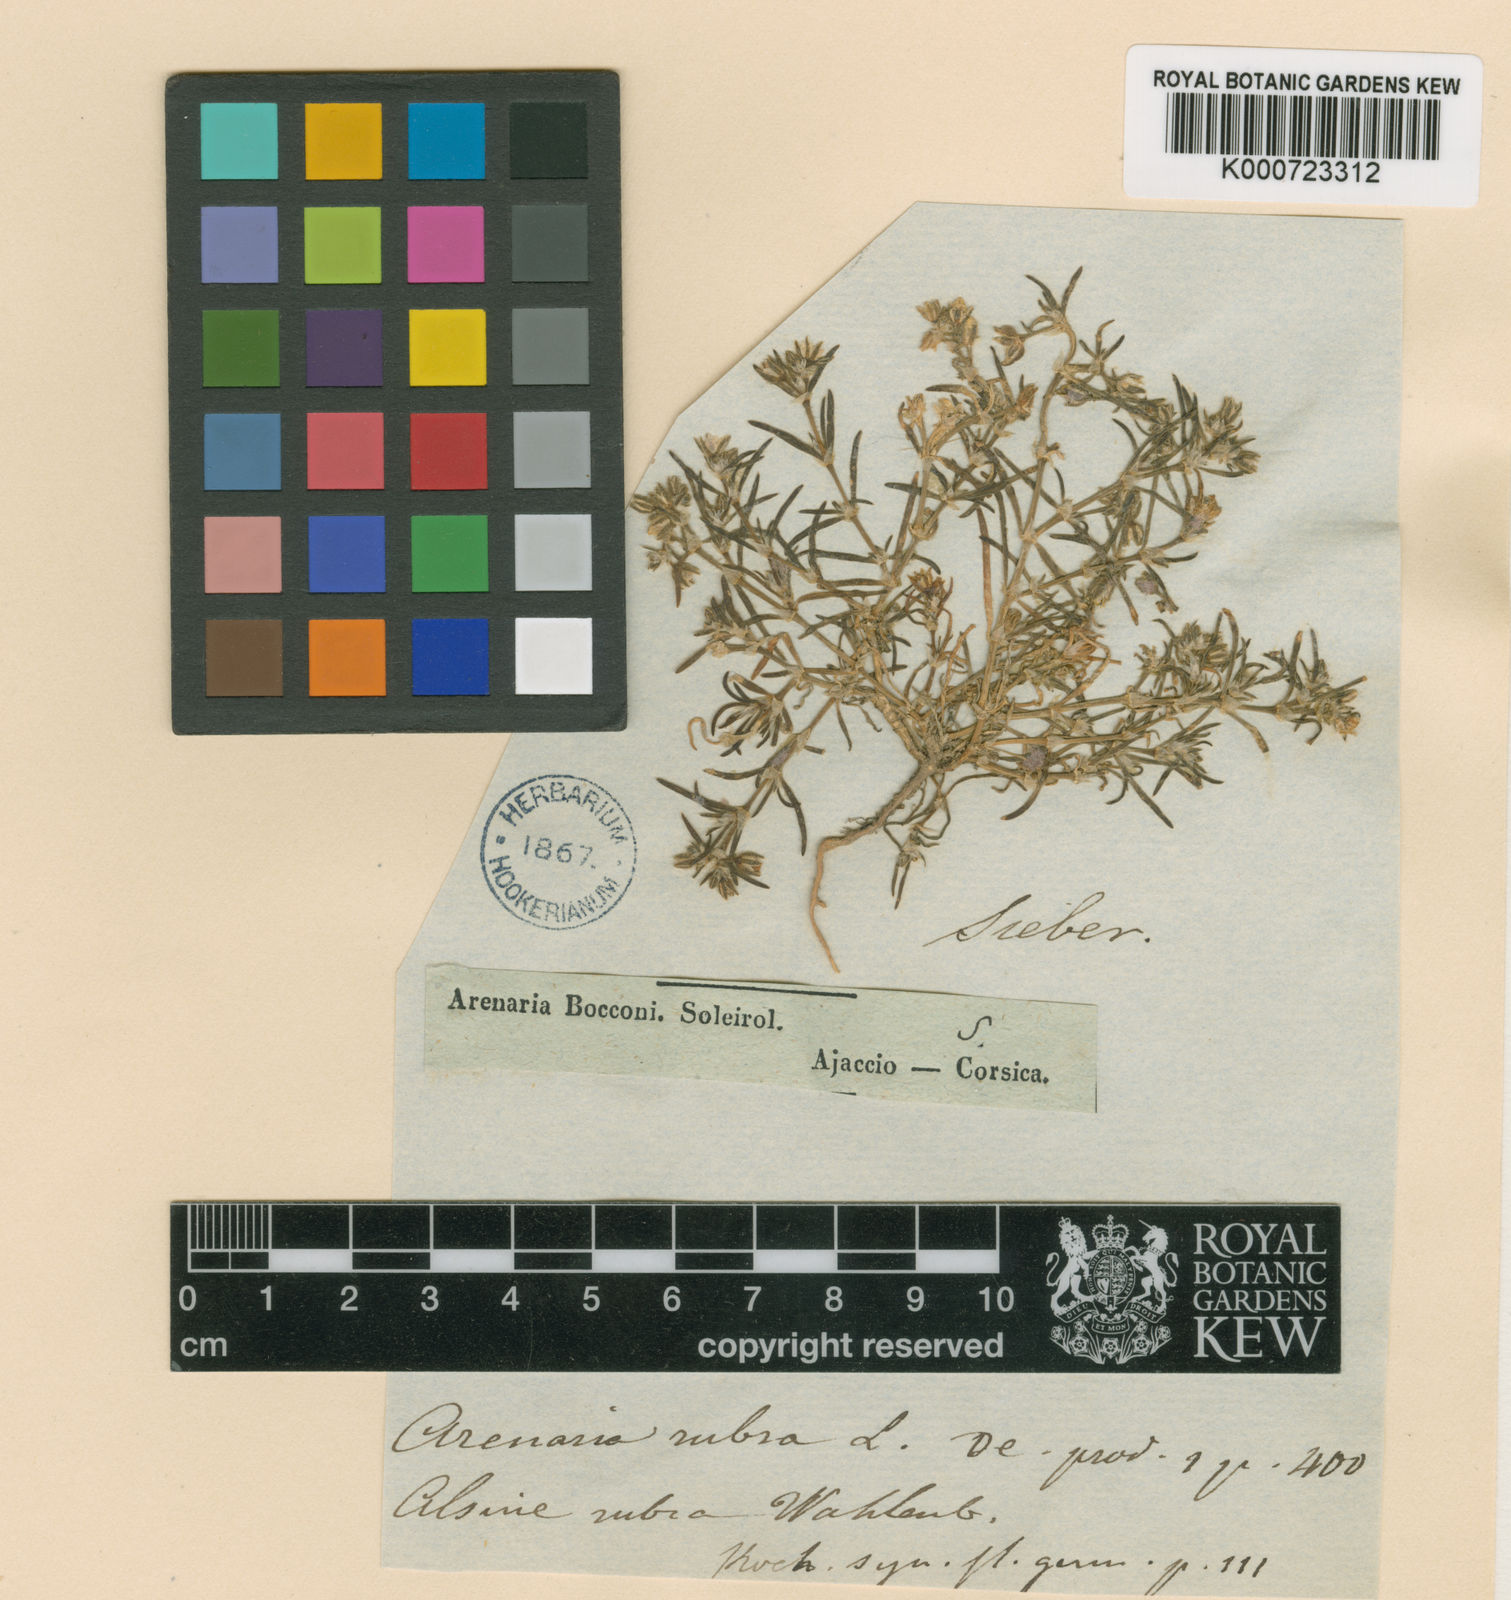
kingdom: Plantae
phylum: Tracheophyta
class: Magnoliopsida
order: Caryophyllales
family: Caryophyllaceae
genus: Spergularia
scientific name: Spergularia bocconei
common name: Greek sea-spurrey
